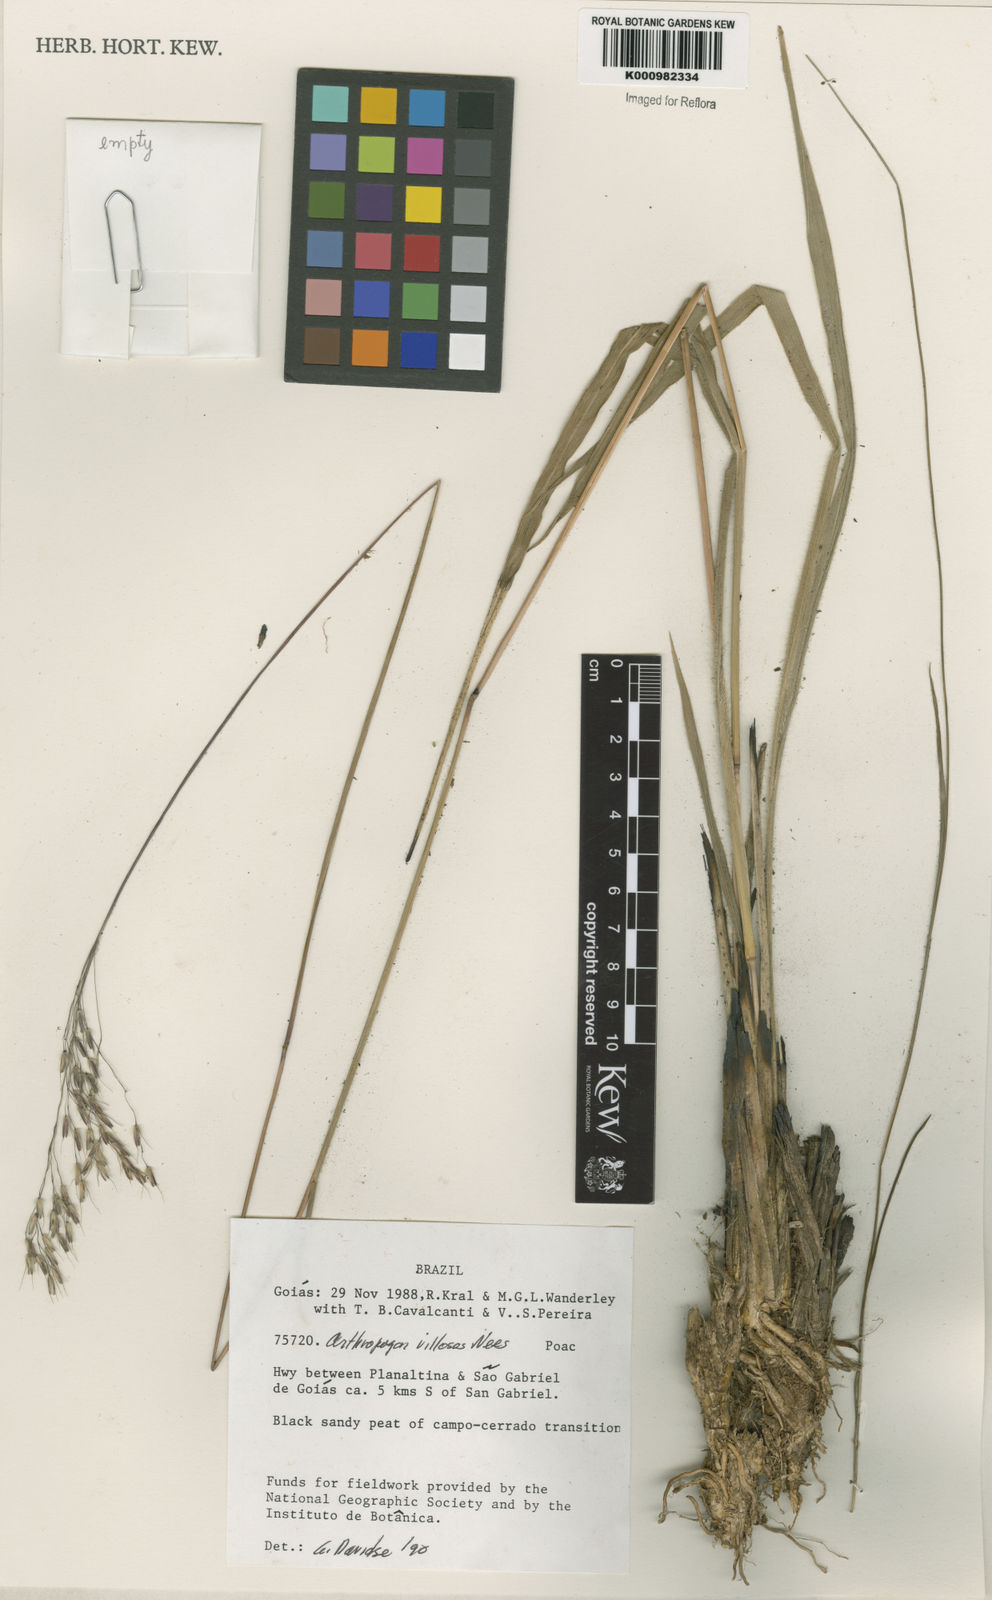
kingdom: Plantae
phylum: Tracheophyta
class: Liliopsida
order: Poales
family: Poaceae
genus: Arthropogon
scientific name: Arthropogon villosus
